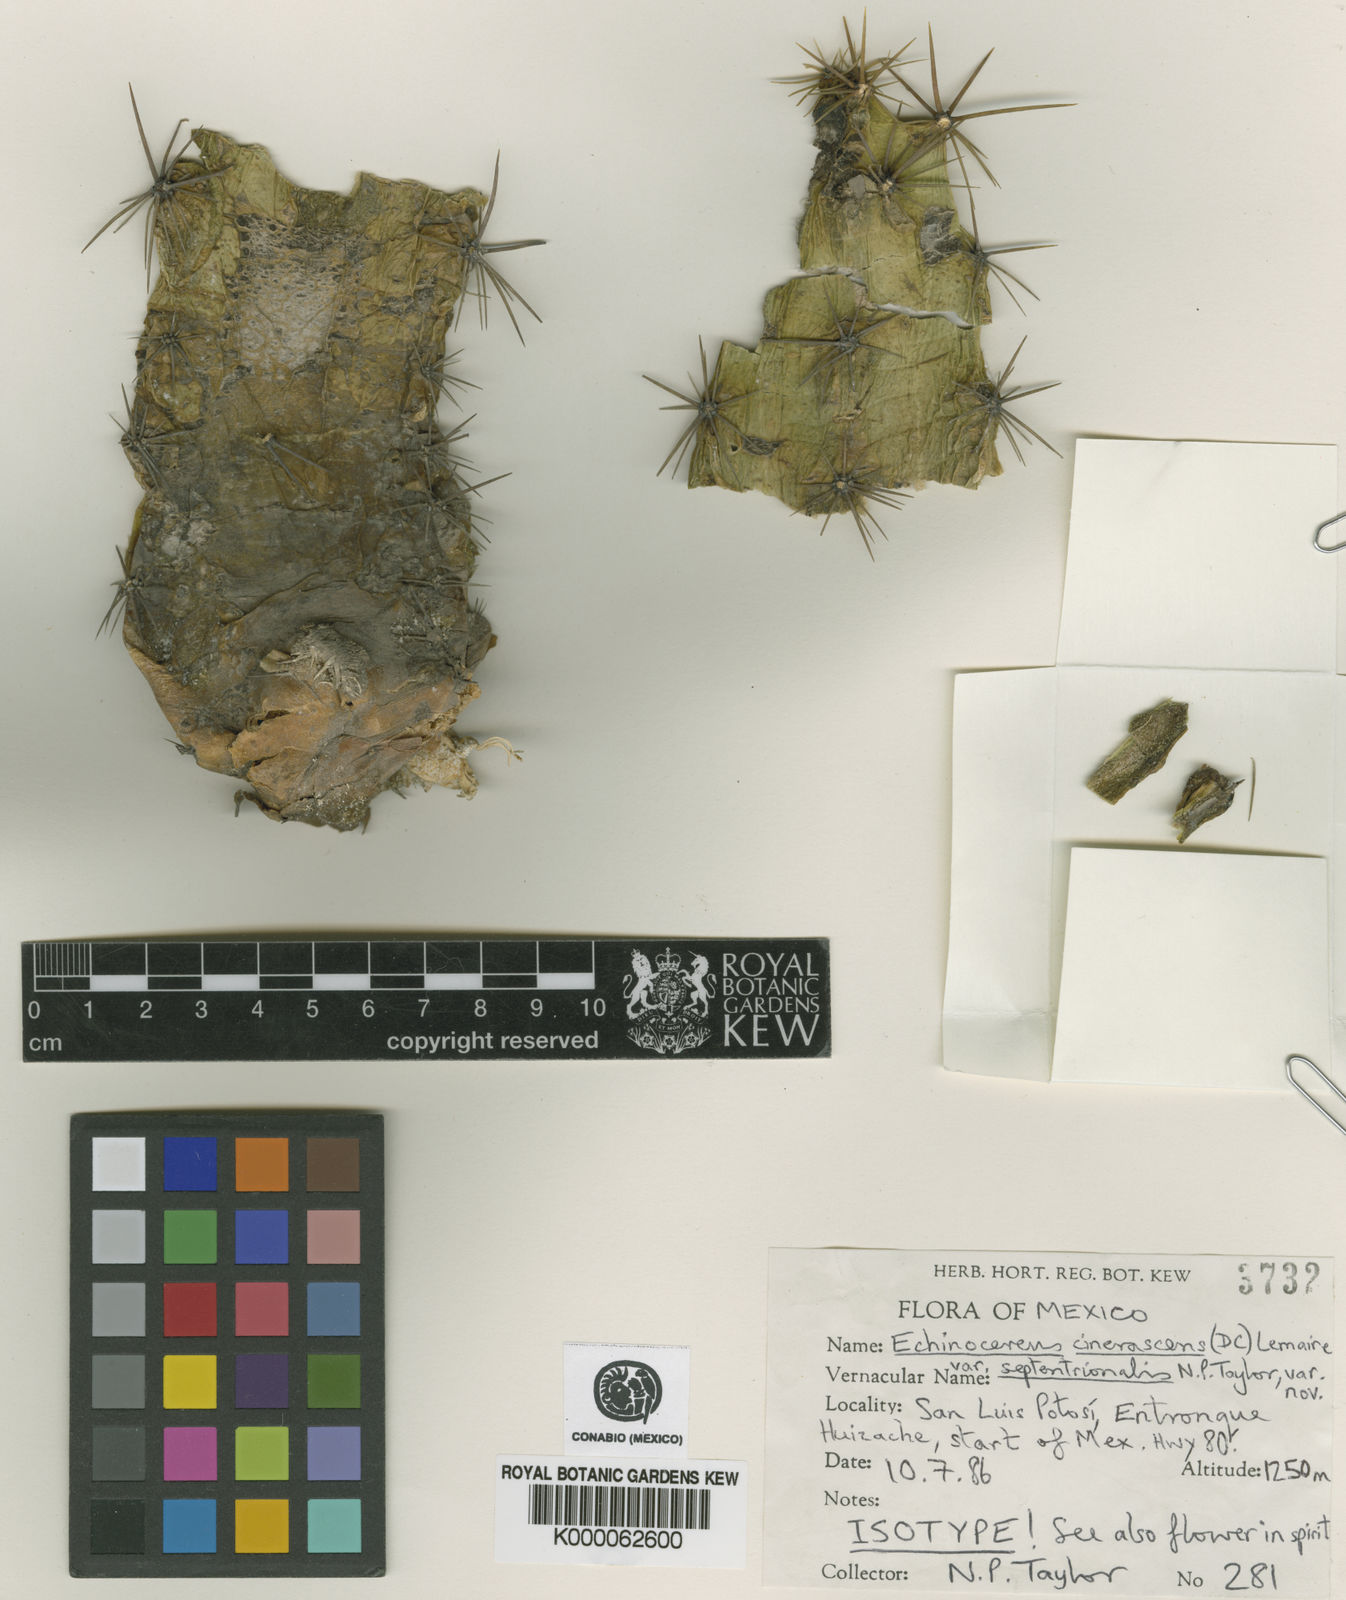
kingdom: Plantae
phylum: Tracheophyta
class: Magnoliopsida
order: Caryophyllales
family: Cactaceae
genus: Echinocereus
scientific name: Echinocereus cinerascens
